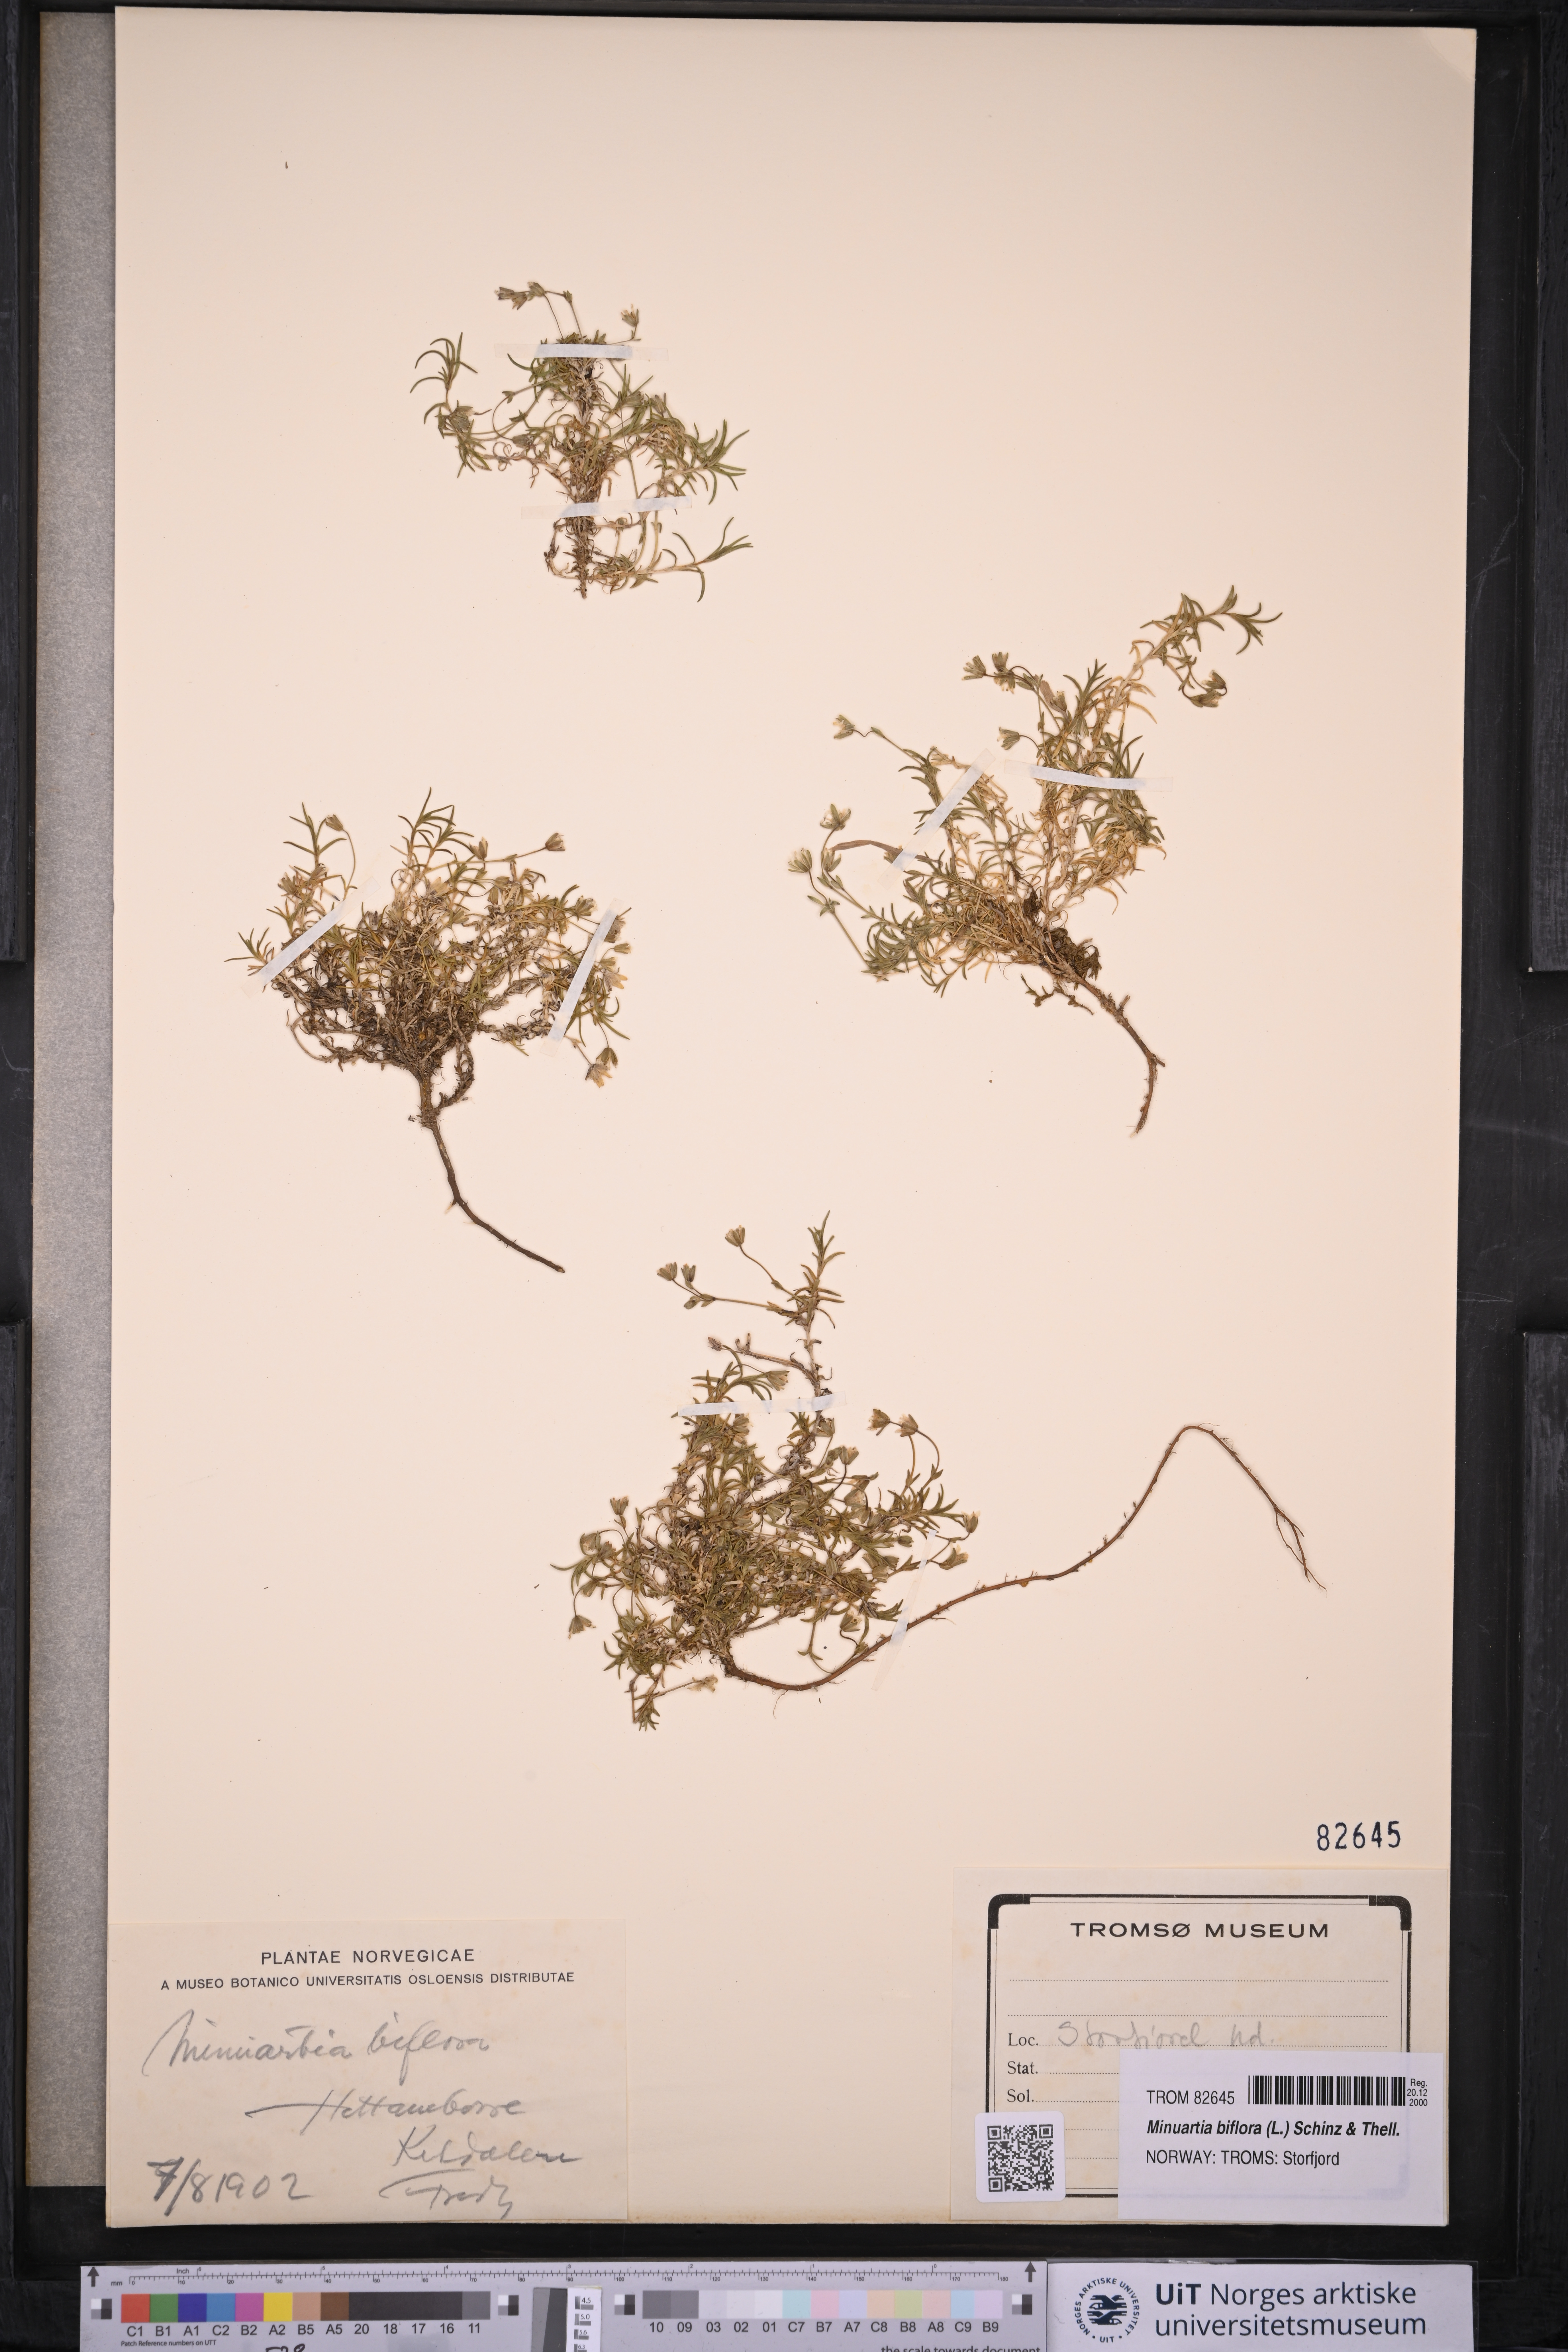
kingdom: Plantae
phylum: Tracheophyta
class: Magnoliopsida
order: Caryophyllales
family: Caryophyllaceae
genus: Cherleria
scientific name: Cherleria biflora
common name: Mountain sandwort
